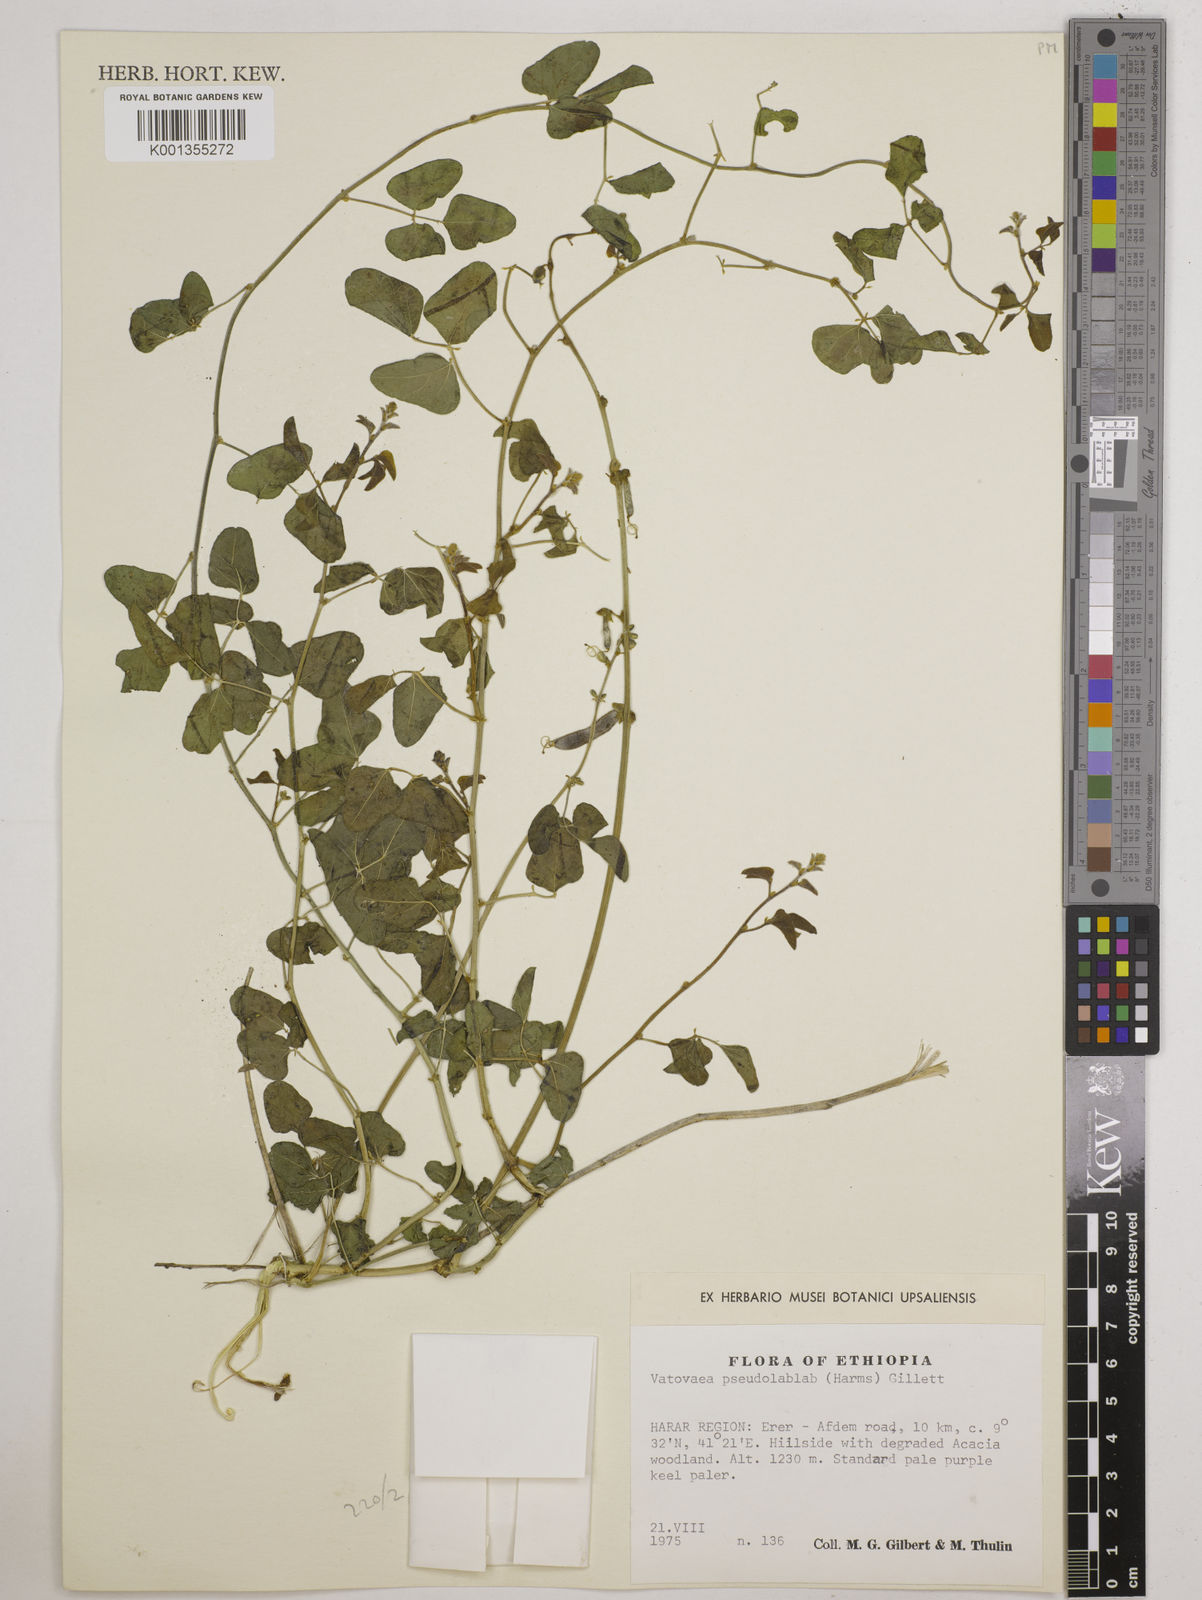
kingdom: Plantae
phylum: Tracheophyta
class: Magnoliopsida
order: Fabales
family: Fabaceae
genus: Vatovaea
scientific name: Vatovaea pseudolablab
